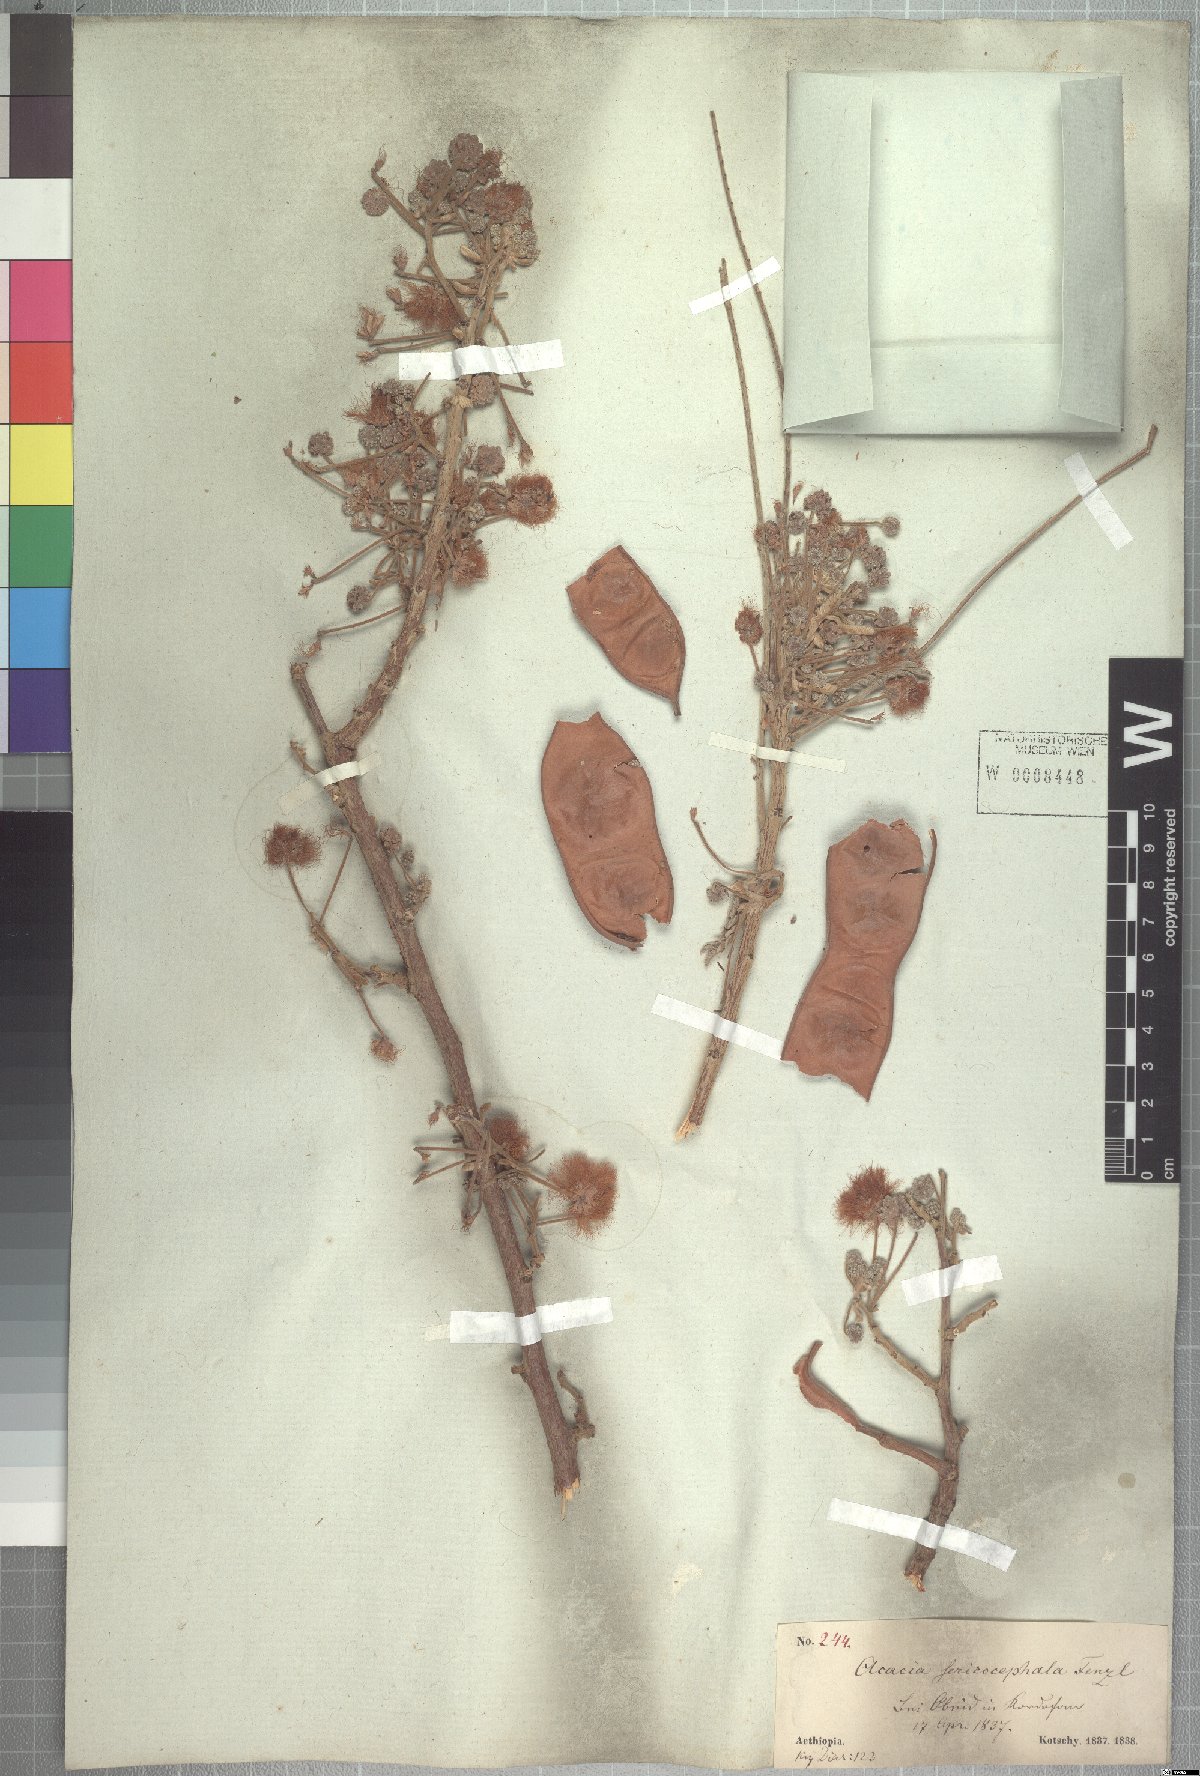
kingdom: Plantae
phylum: Tracheophyta
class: Magnoliopsida
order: Fabales
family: Fabaceae
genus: Albizia
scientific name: Albizia amara
